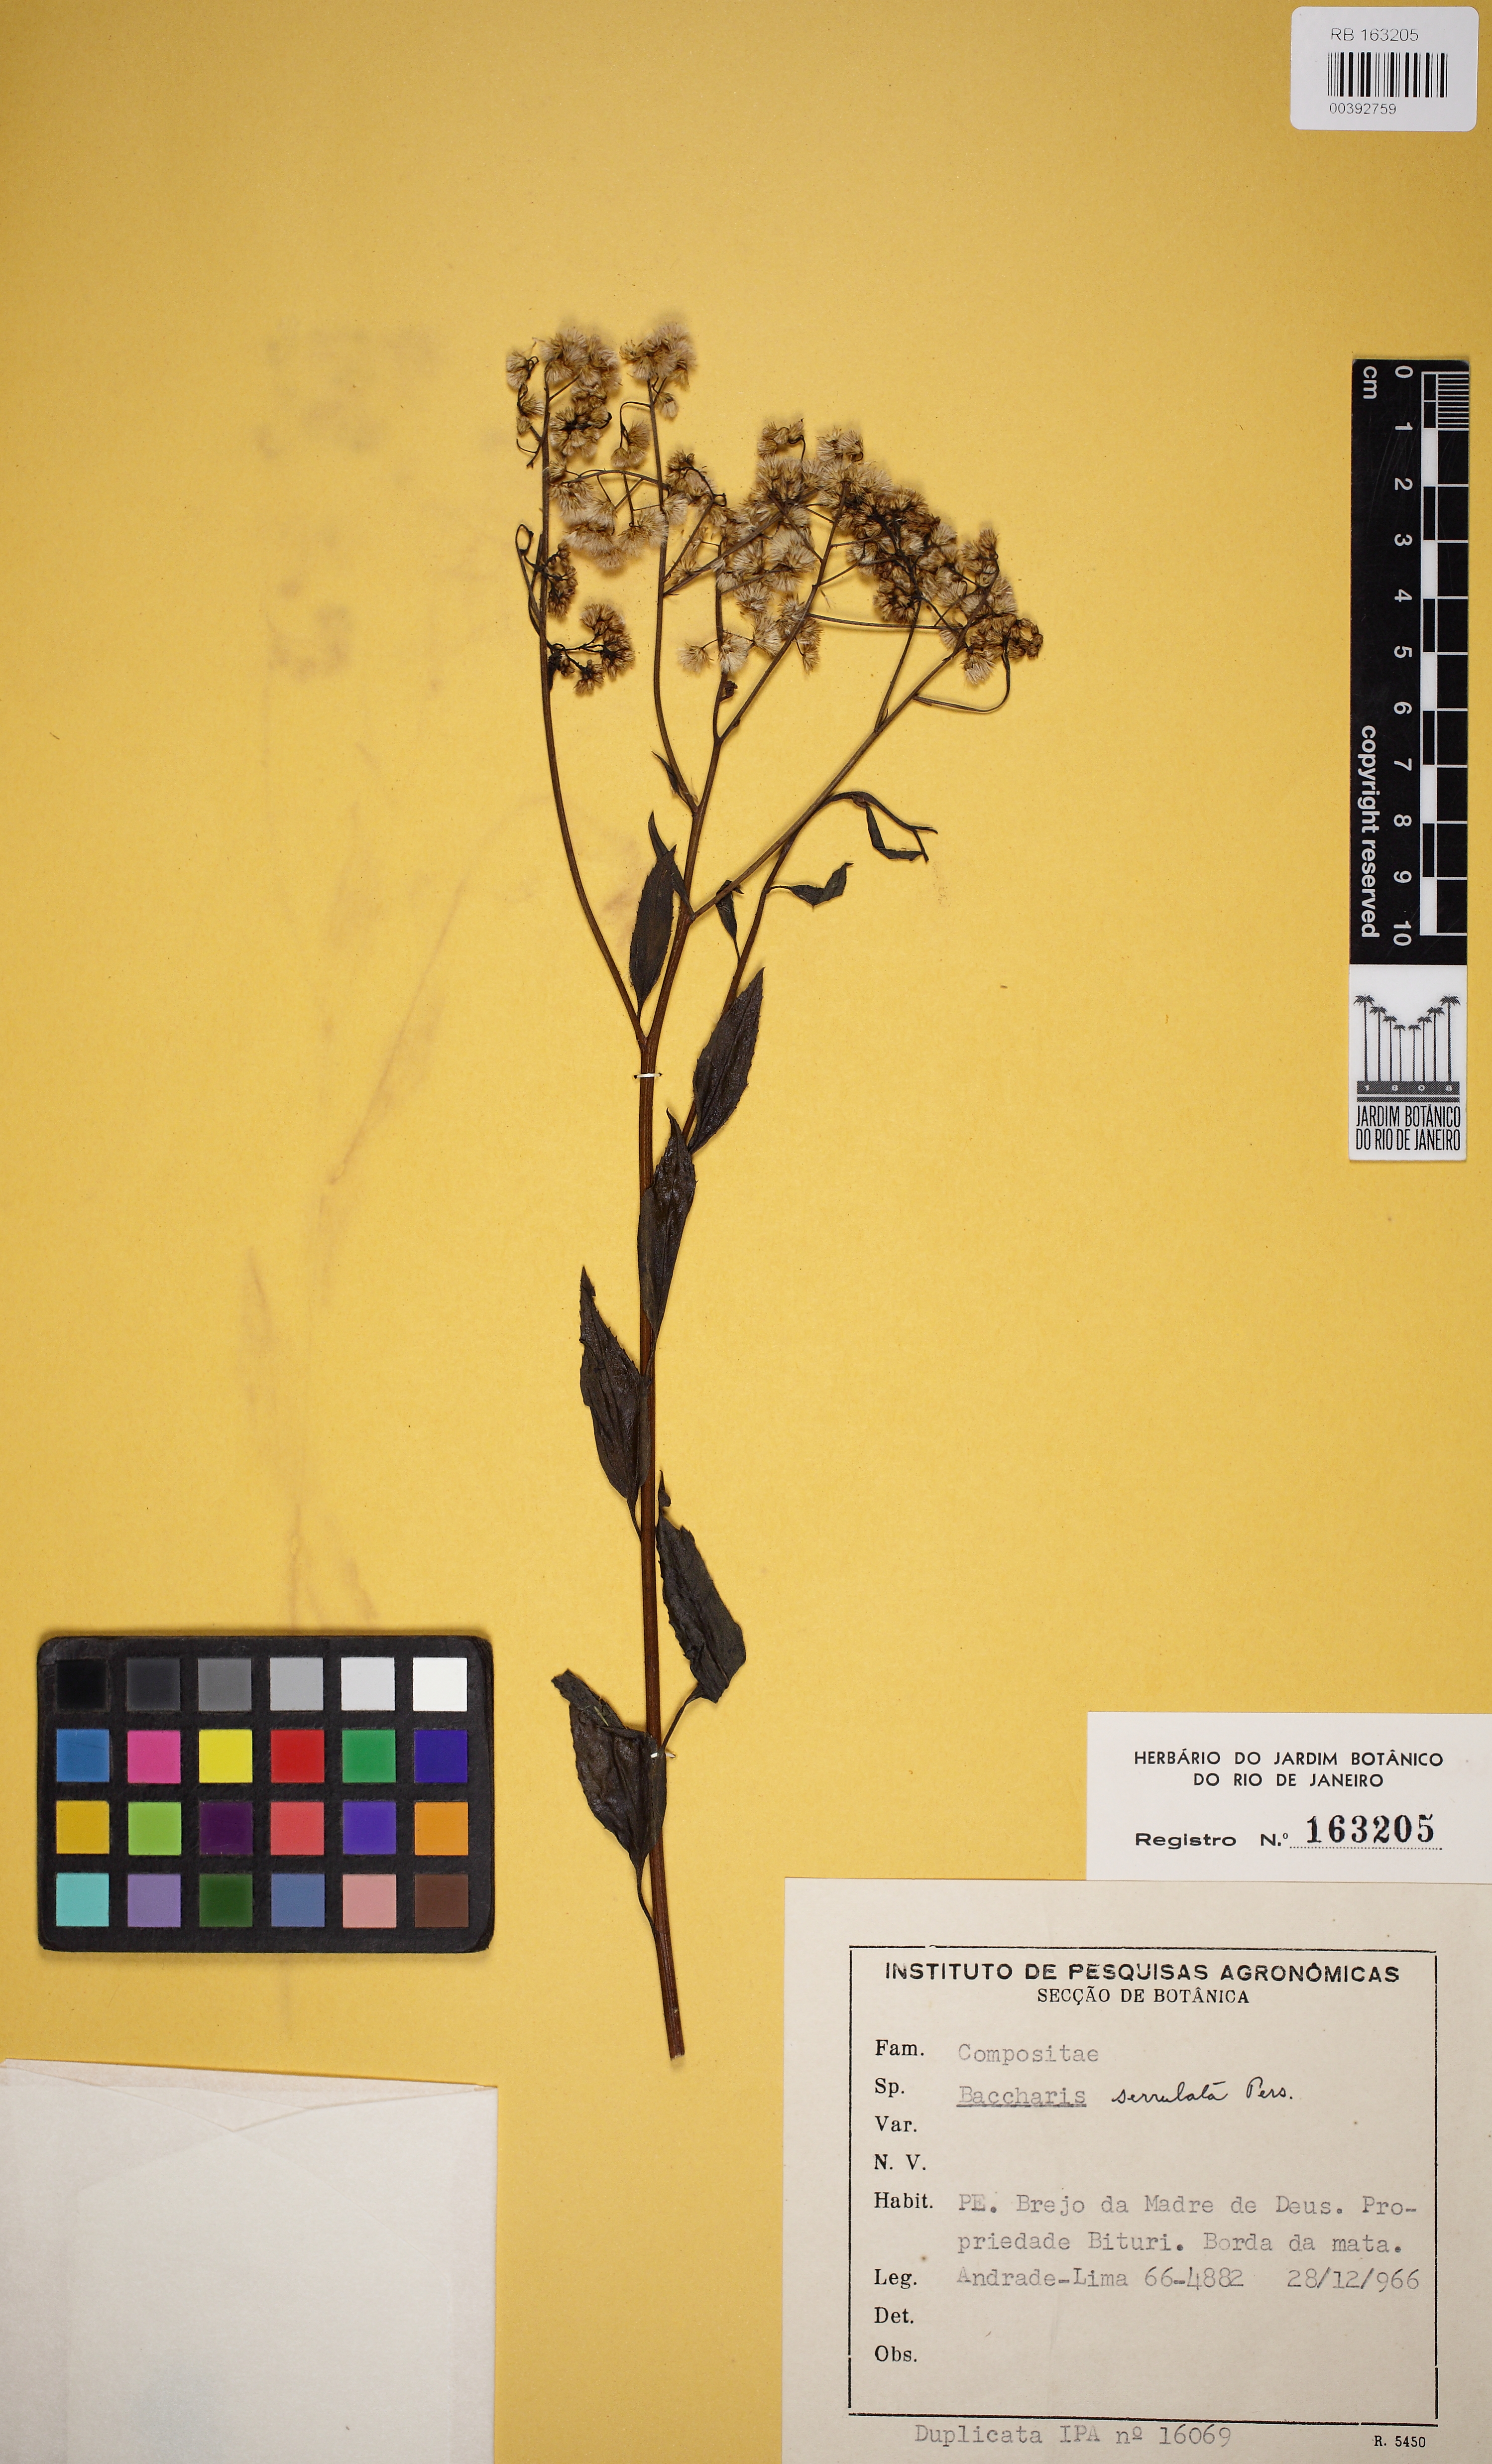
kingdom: Plantae
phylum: Tracheophyta
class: Magnoliopsida
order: Asterales
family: Asteraceae
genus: Baccharis
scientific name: Baccharis serrulata
